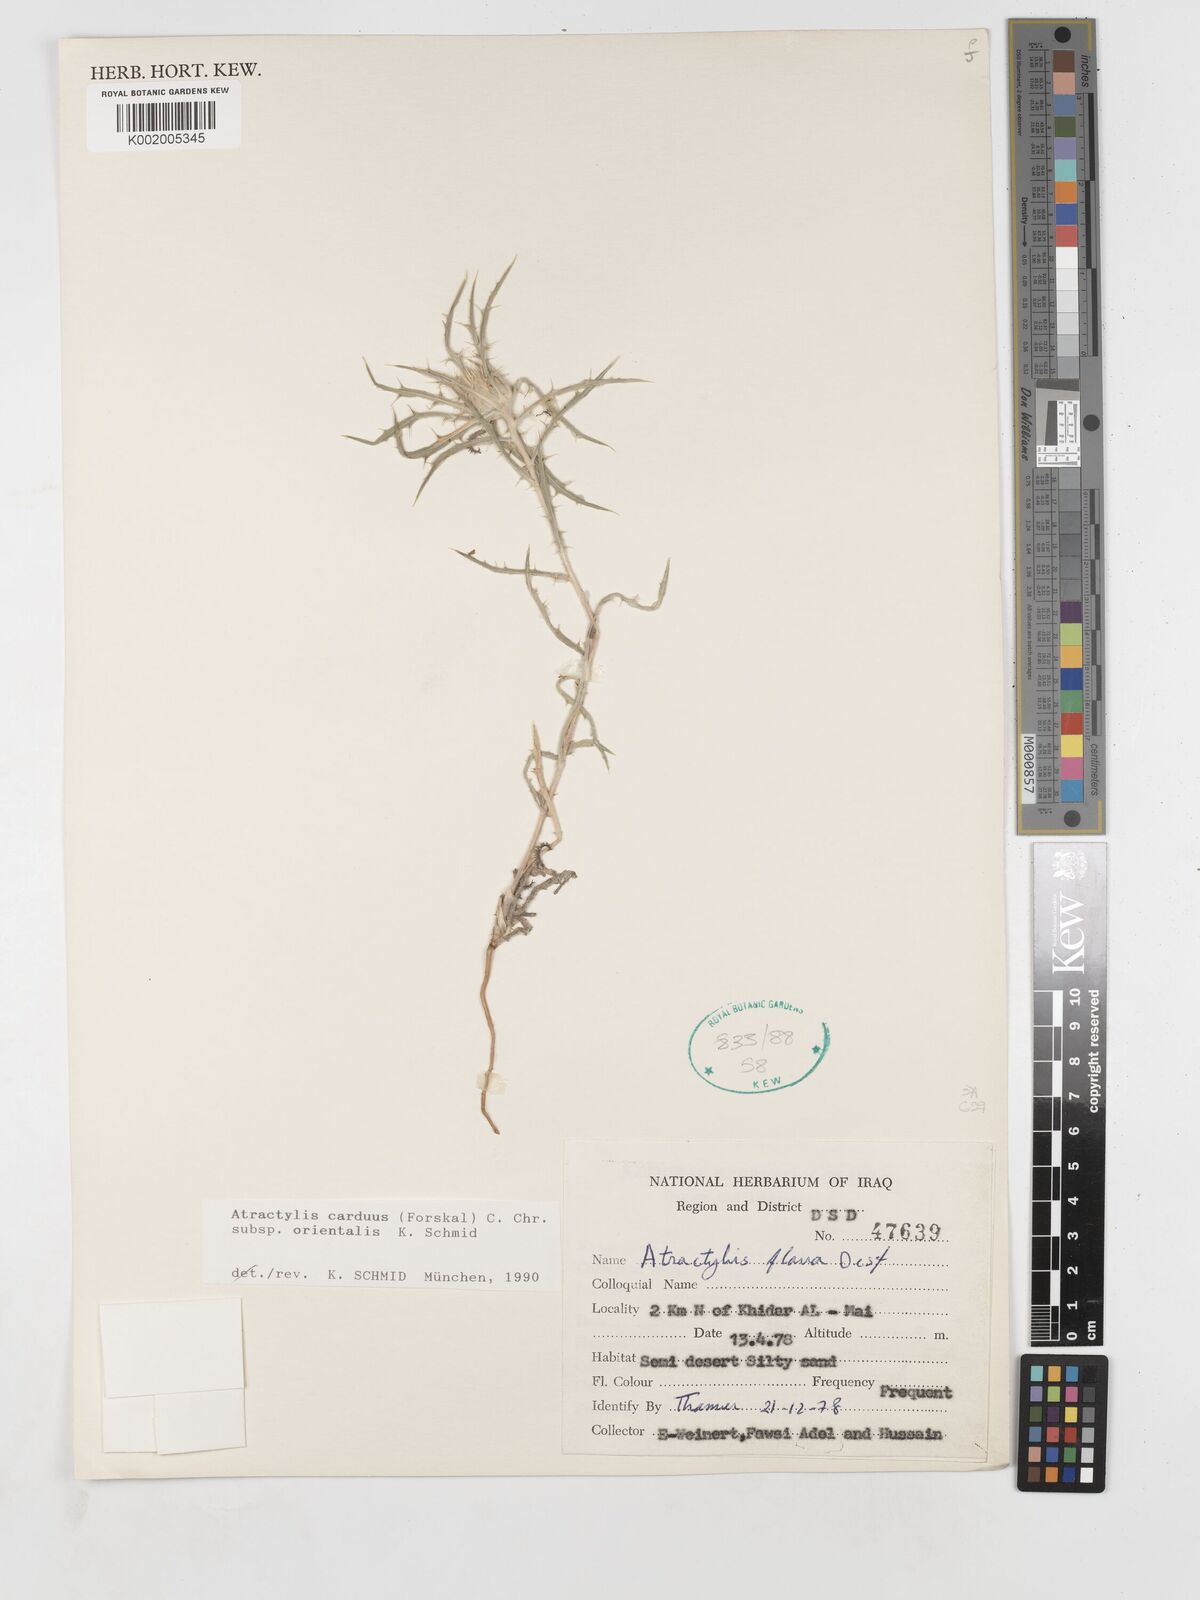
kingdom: Plantae
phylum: Tracheophyta
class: Magnoliopsida
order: Asterales
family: Asteraceae
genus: Atractylis
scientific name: Atractylis carduus
